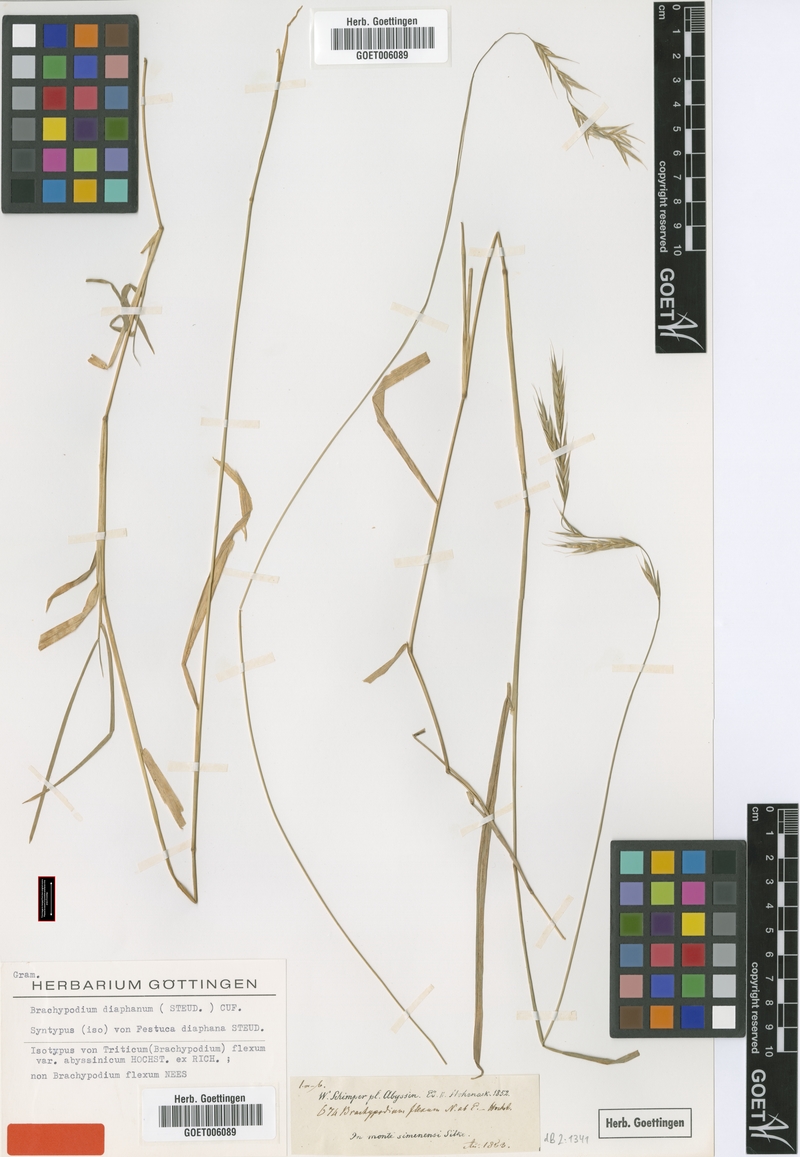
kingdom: Plantae
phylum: Tracheophyta
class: Liliopsida
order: Poales
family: Poaceae
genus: Brachypodium
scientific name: Brachypodium flexum
